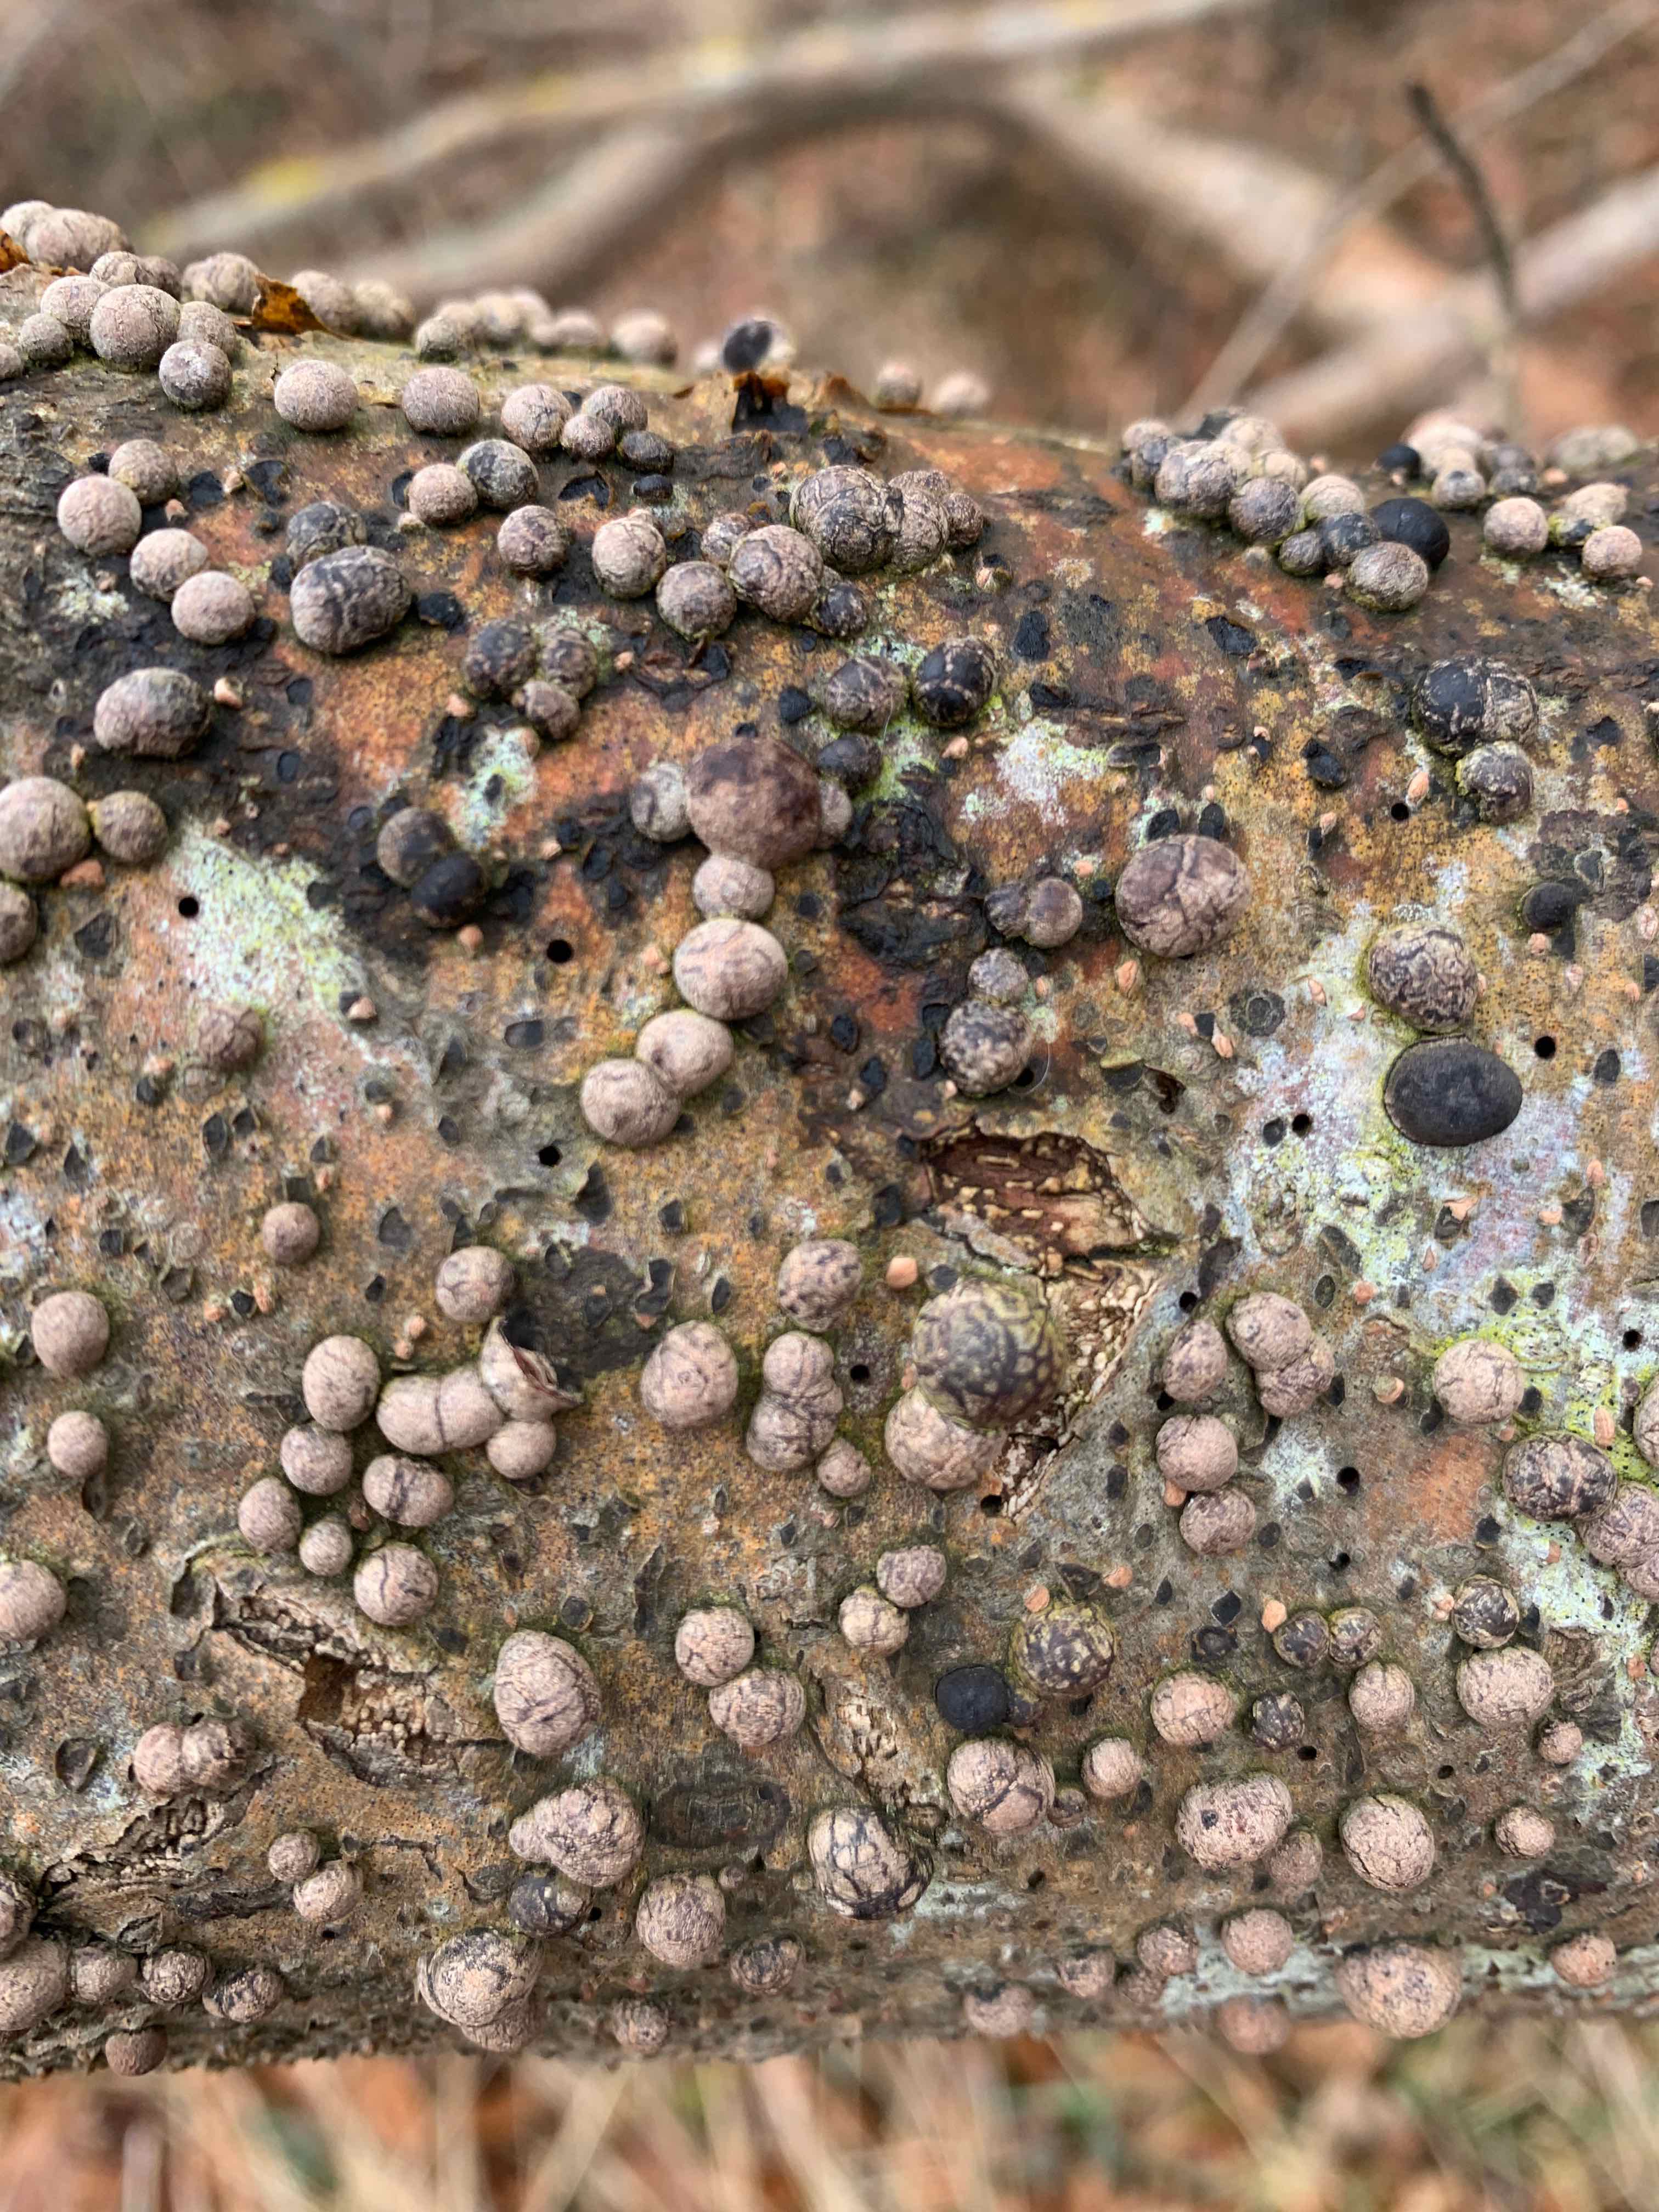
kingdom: Fungi
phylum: Ascomycota
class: Sordariomycetes
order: Xylariales
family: Hypoxylaceae
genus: Hypoxylon
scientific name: Hypoxylon fragiforme
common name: kuljordbær
